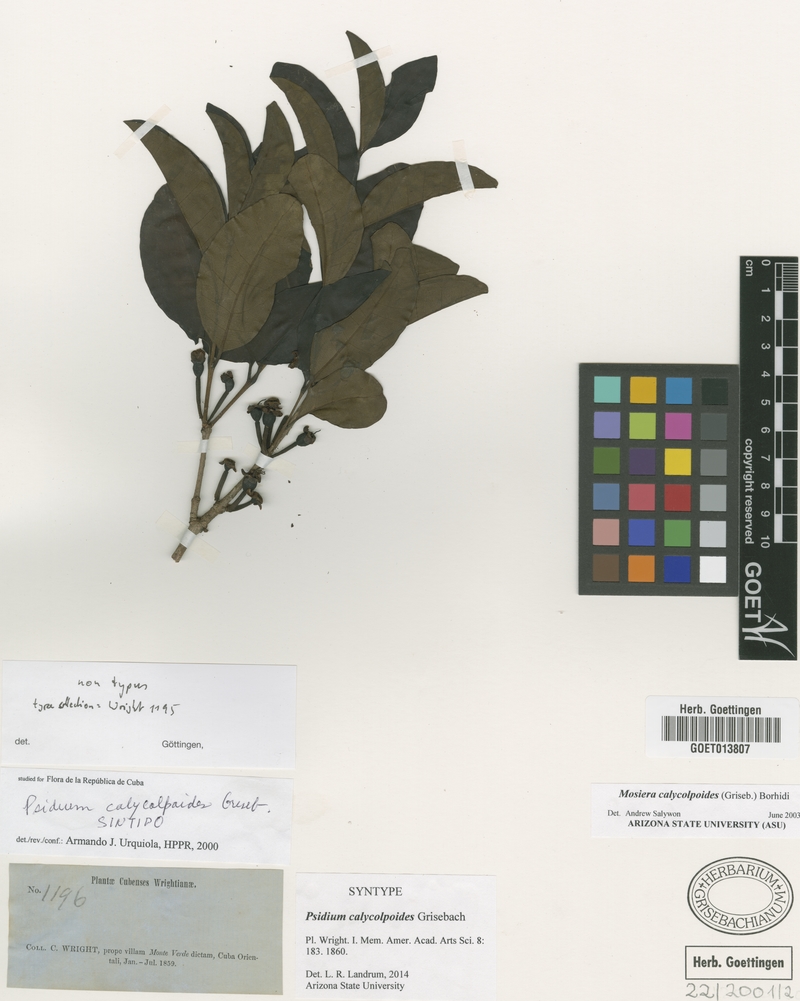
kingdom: Plantae
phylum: Tracheophyta
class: Magnoliopsida
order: Myrtales
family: Myrtaceae
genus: Mosiera
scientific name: Mosiera calycolpoides
